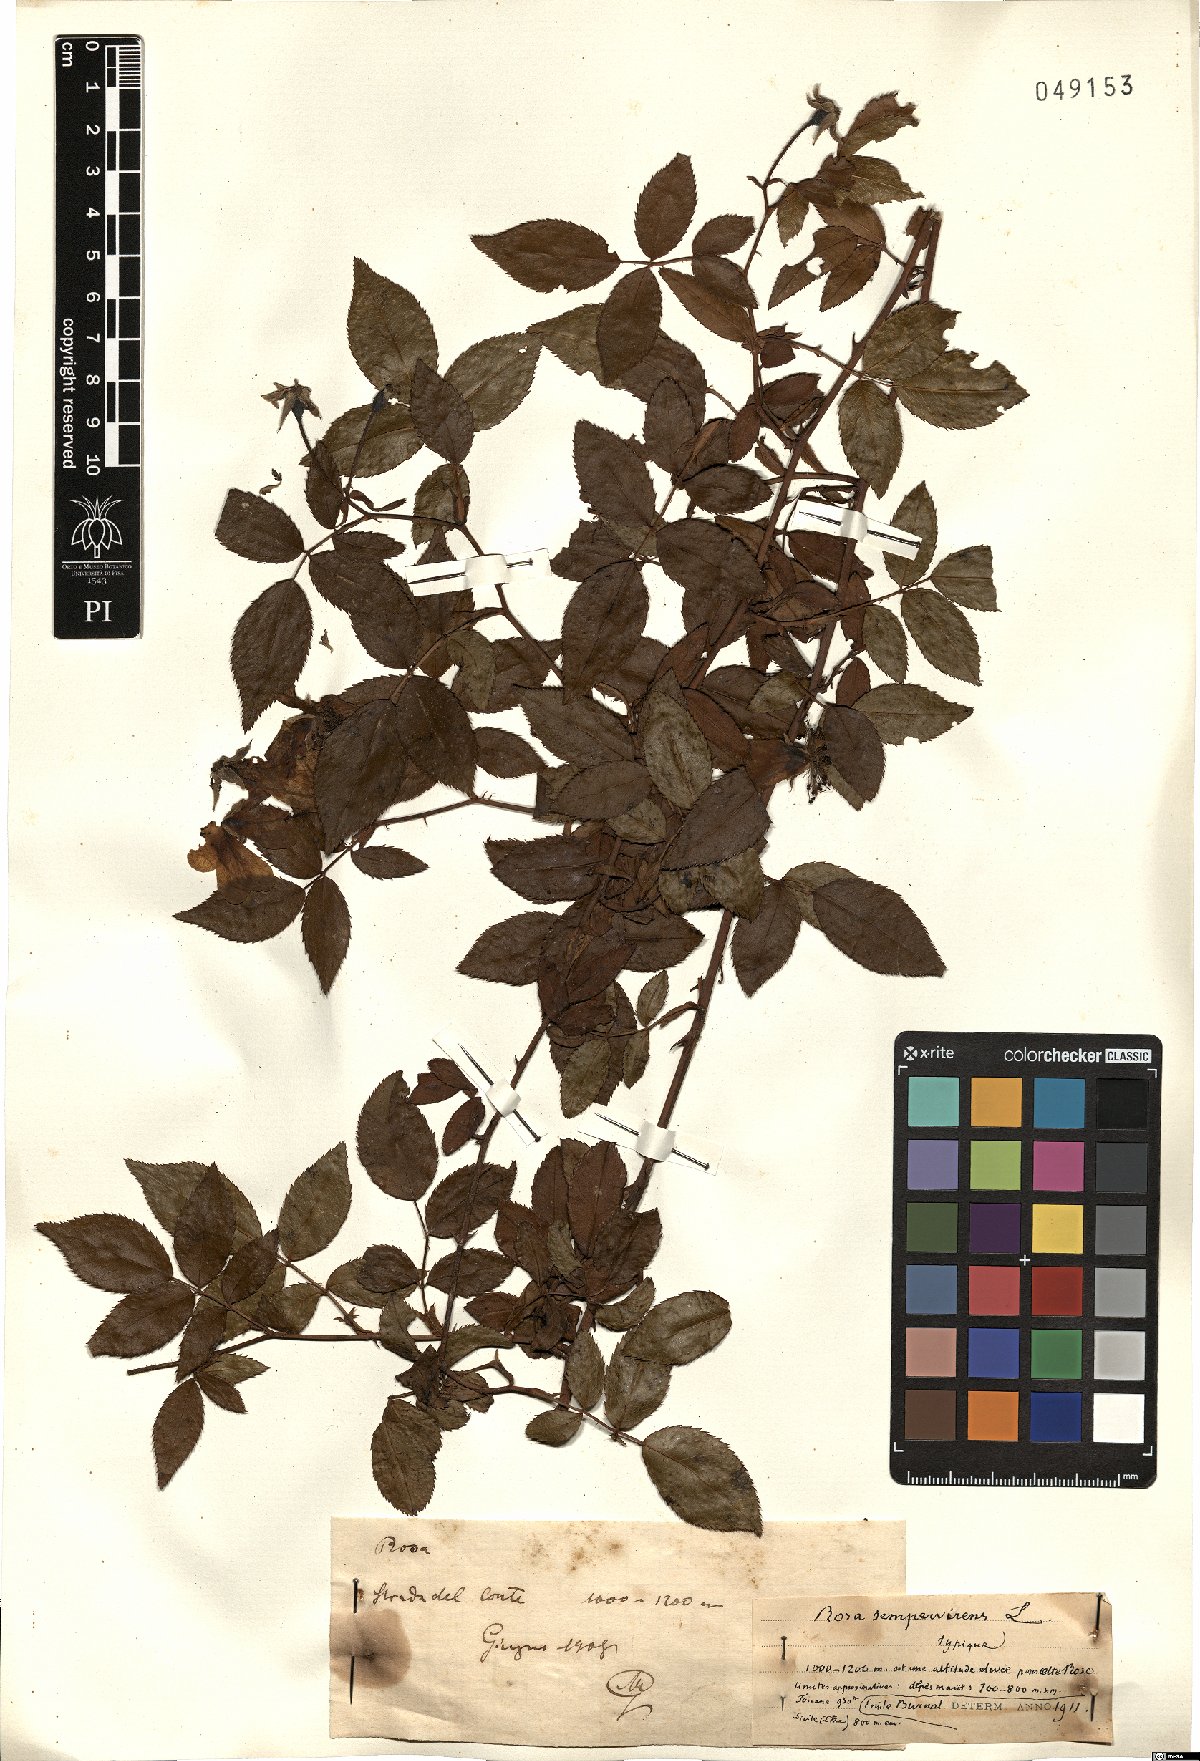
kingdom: Plantae
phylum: Tracheophyta
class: Magnoliopsida
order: Rosales
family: Rosaceae
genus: Rosa
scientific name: Rosa sempervirens
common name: Evergreen rose
